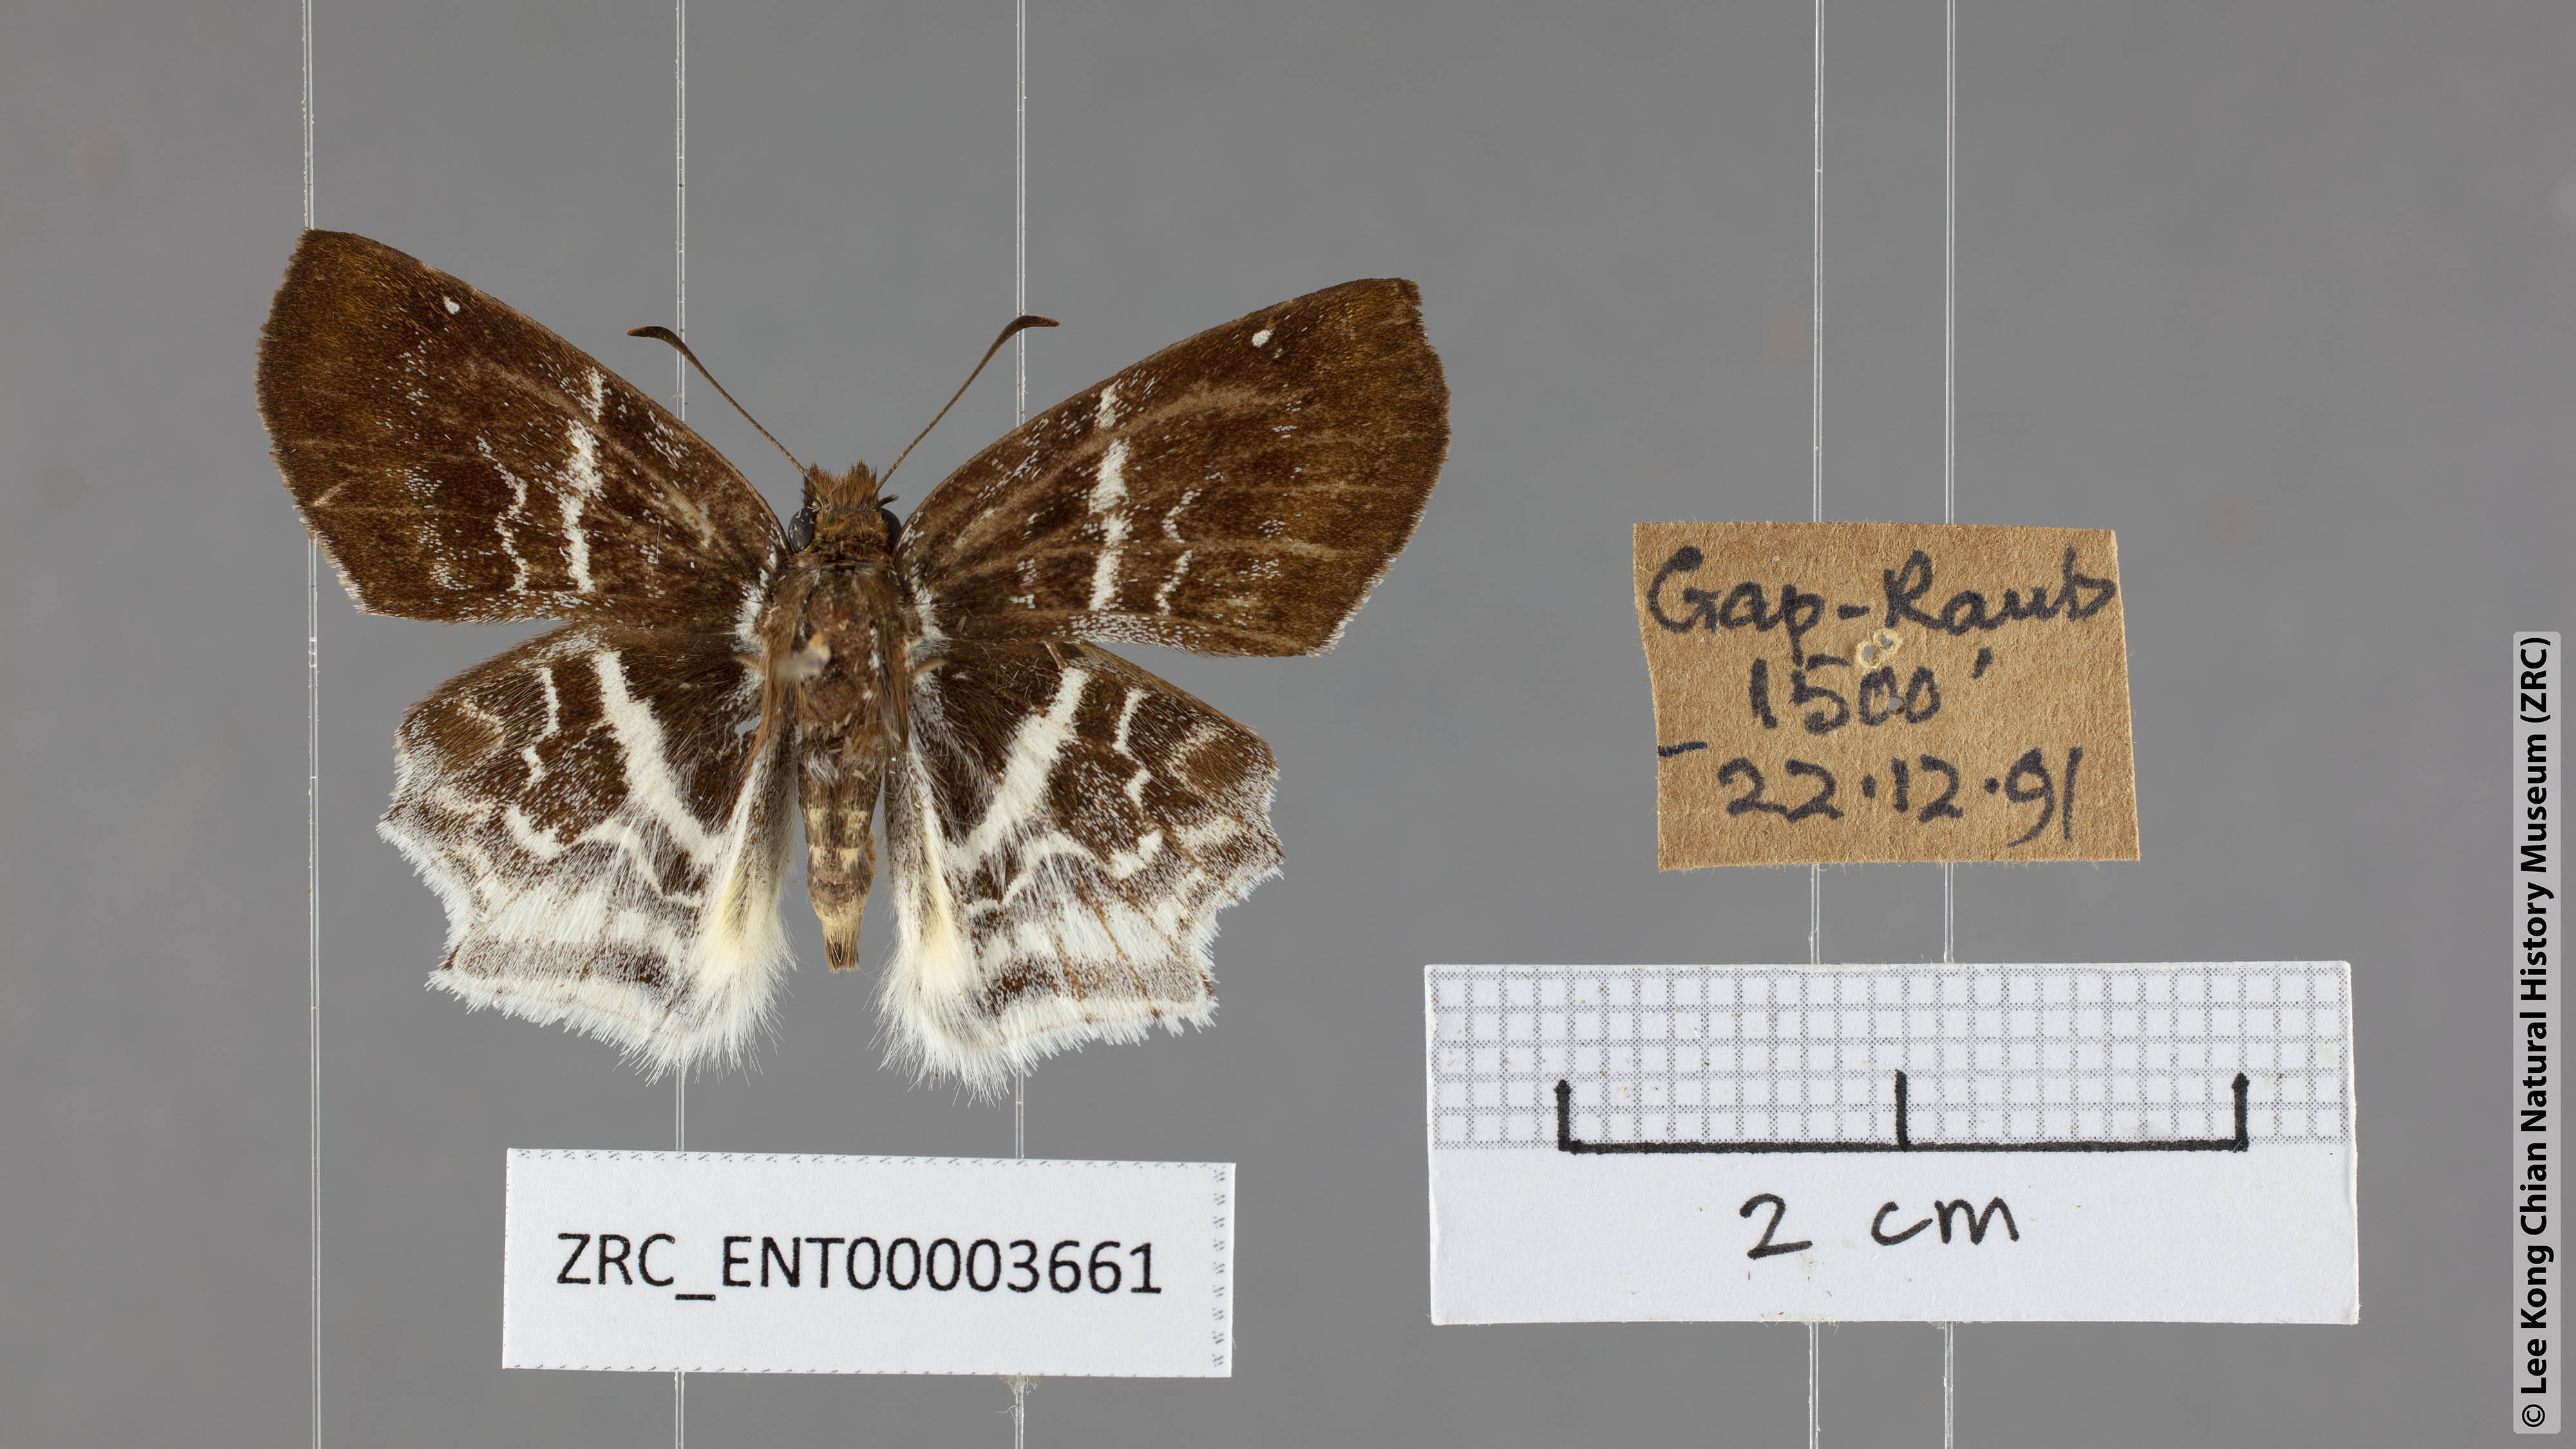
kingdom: Animalia
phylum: Arthropoda
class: Insecta
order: Lepidoptera
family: Hesperiidae
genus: Odontoptilum
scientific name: Odontoptilum pygela
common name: Banded angle
